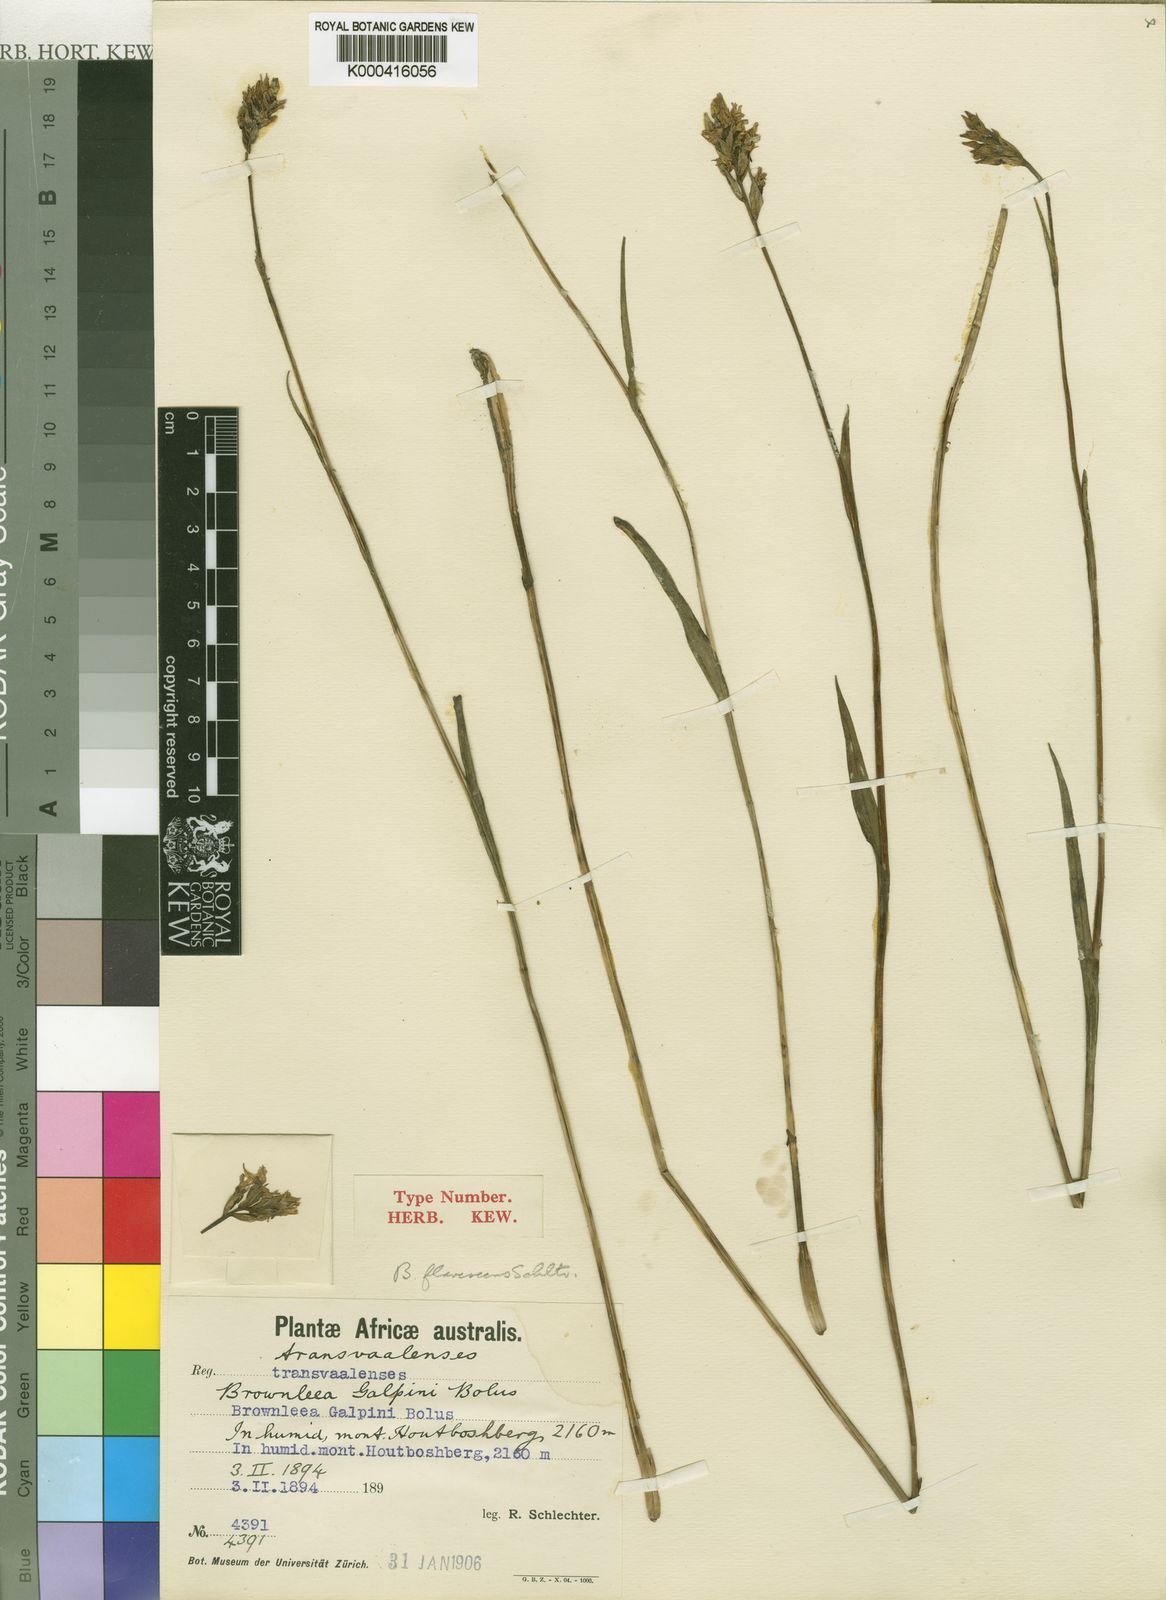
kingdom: Plantae
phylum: Tracheophyta
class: Liliopsida
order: Asparagales
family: Orchidaceae
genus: Brownleea
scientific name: Brownleea galpinii
